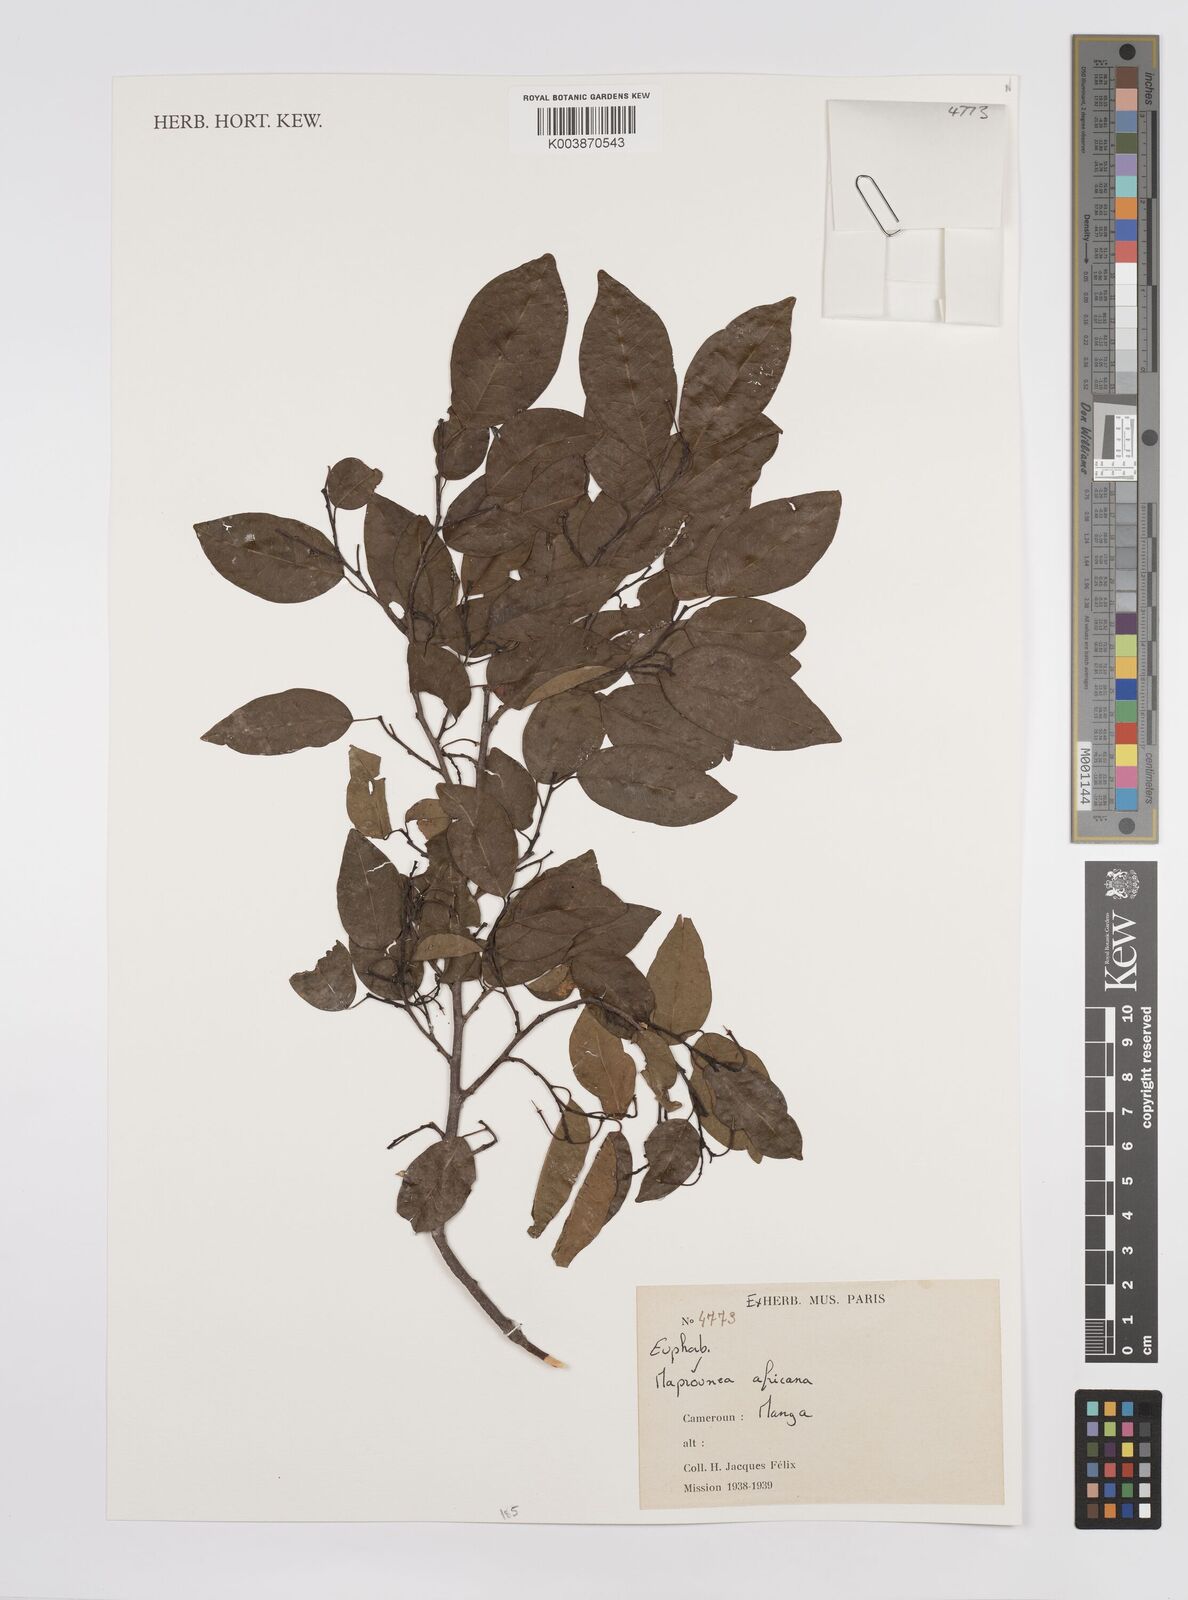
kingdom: Plantae
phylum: Tracheophyta
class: Magnoliopsida
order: Malpighiales
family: Euphorbiaceae
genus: Maprounea
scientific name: Maprounea africana
